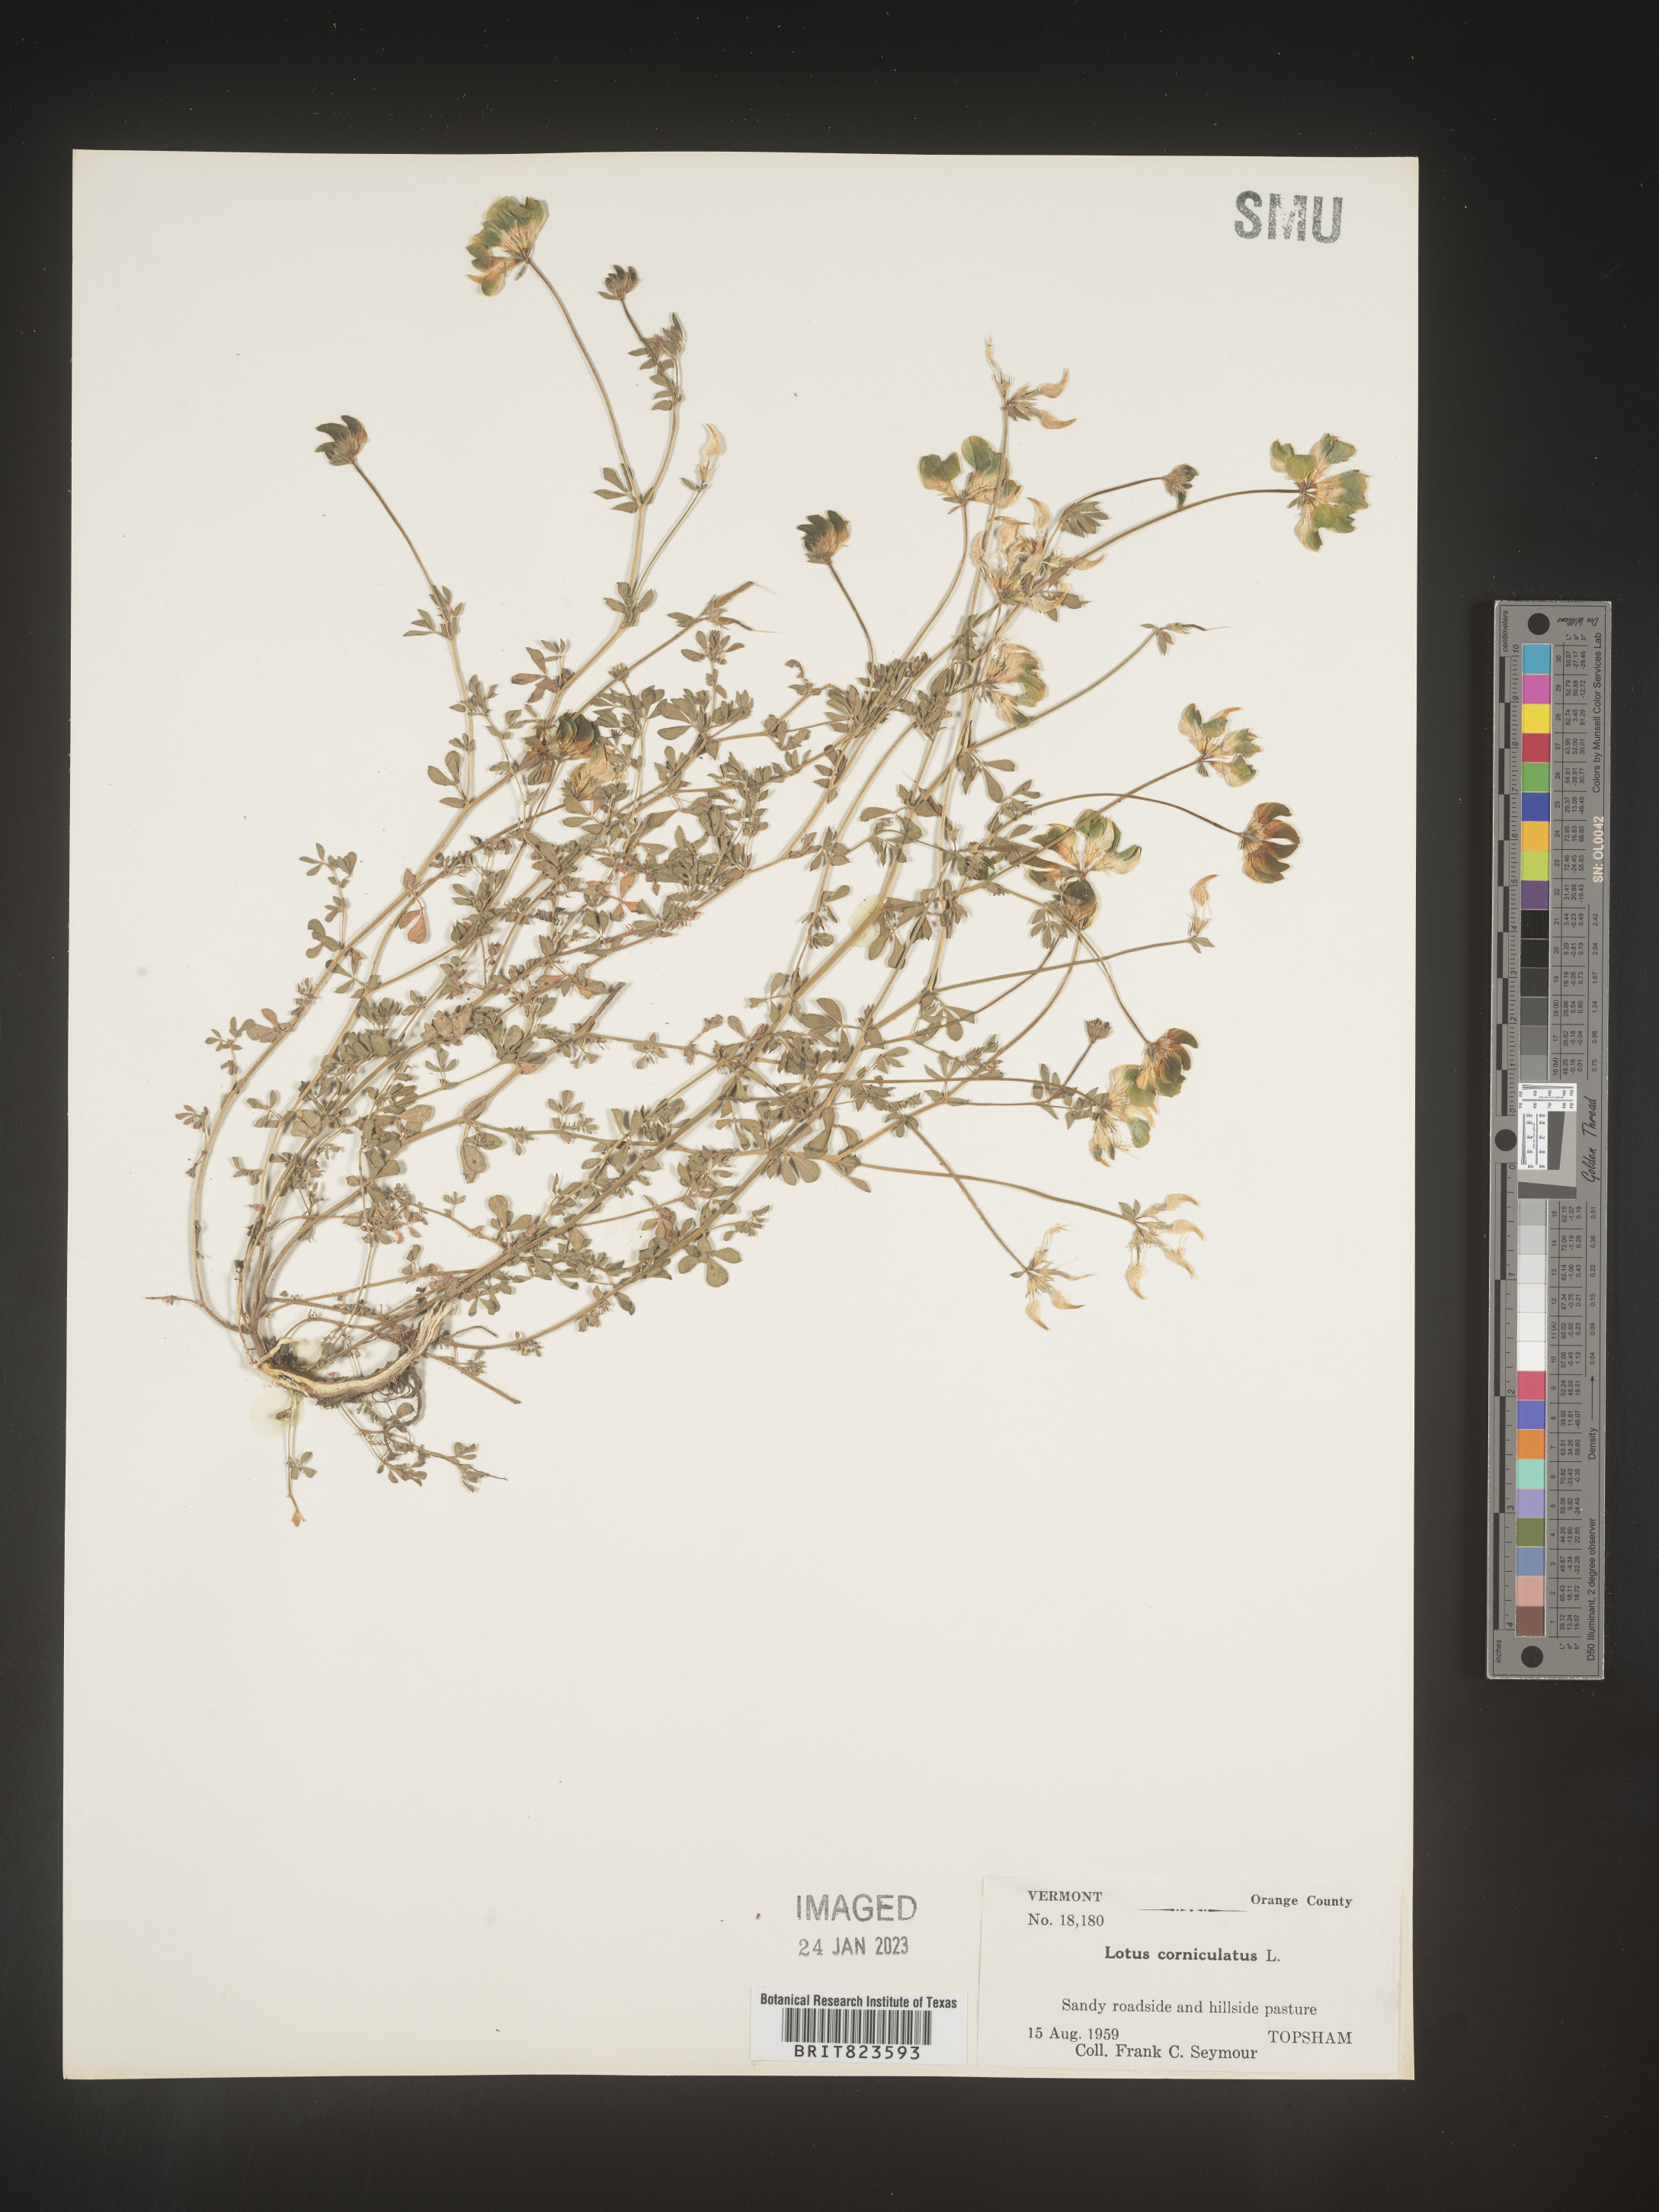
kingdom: Plantae
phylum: Tracheophyta
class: Magnoliopsida
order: Fabales
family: Fabaceae
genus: Lotus
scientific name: Lotus corniculatus
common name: Common bird's-foot-trefoil
